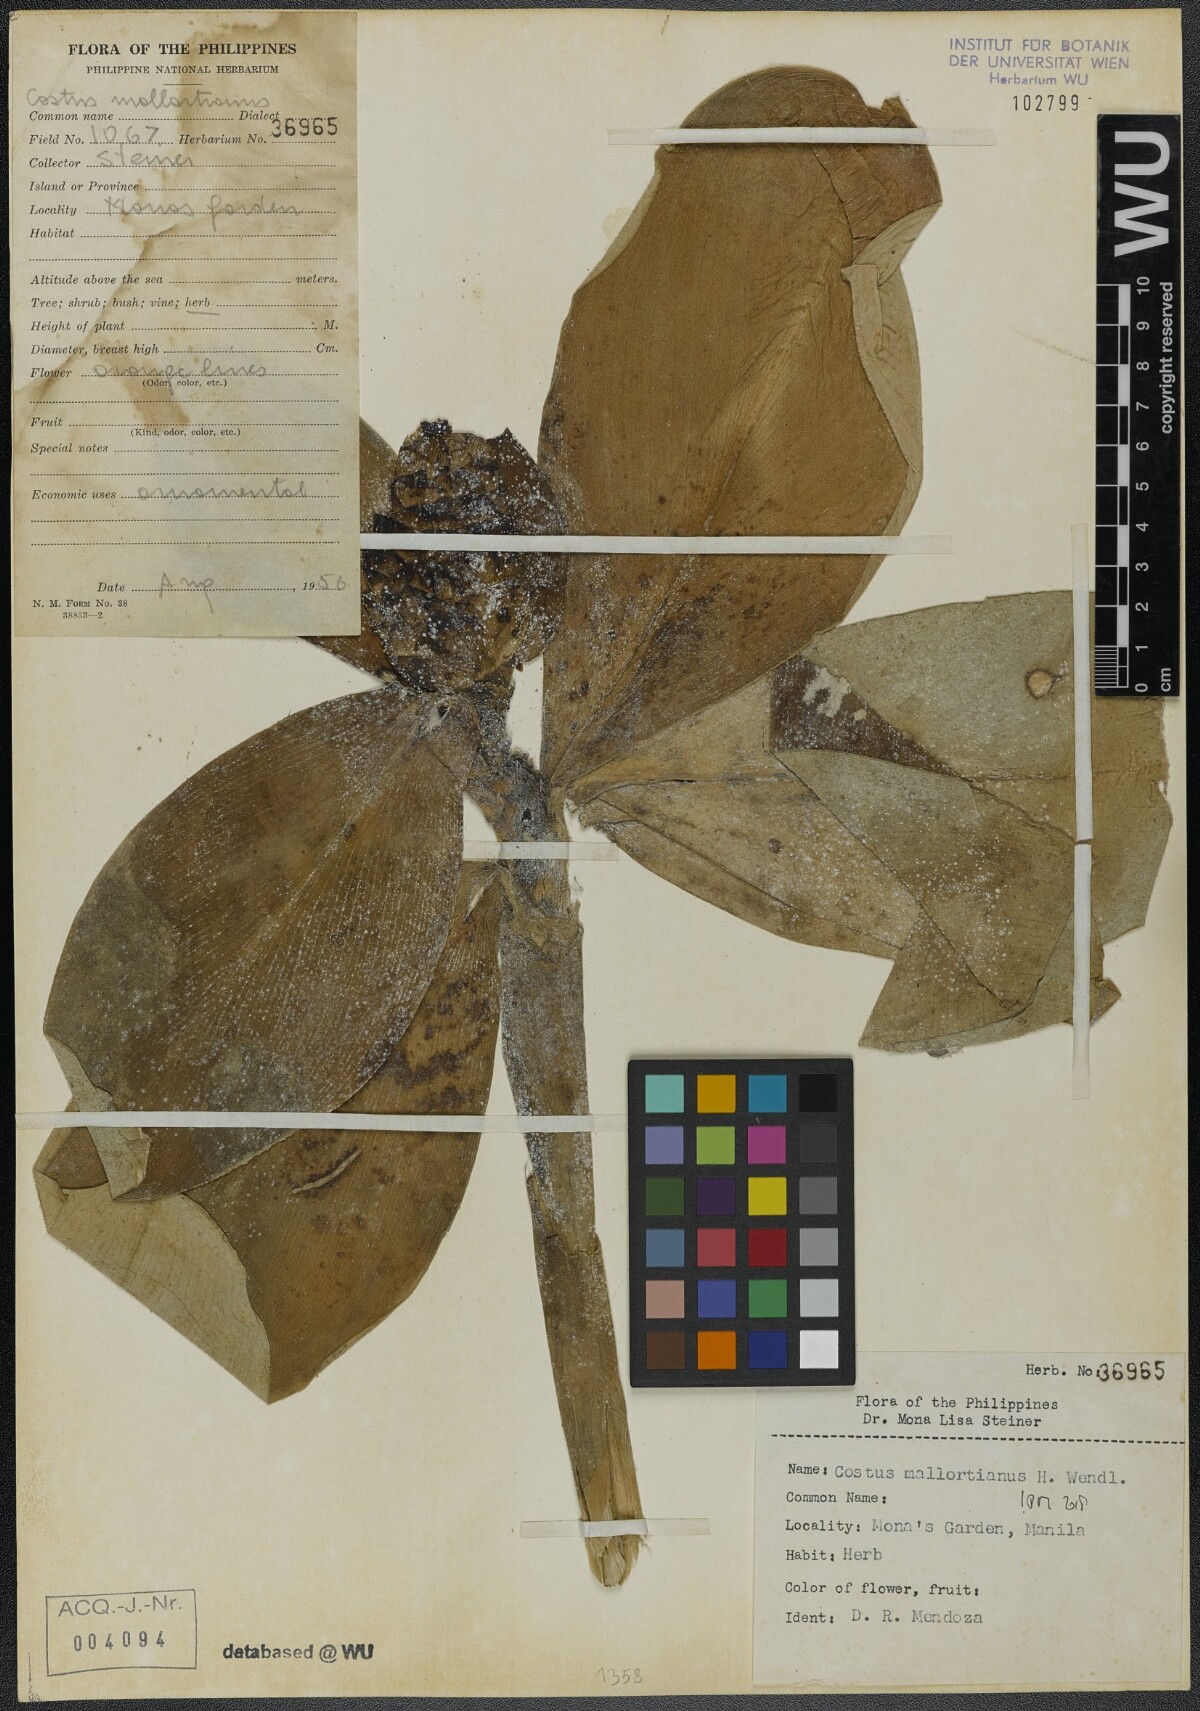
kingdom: Plantae
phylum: Tracheophyta
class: Liliopsida
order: Zingiberales
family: Costaceae
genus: Costus
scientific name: Costus elegans
